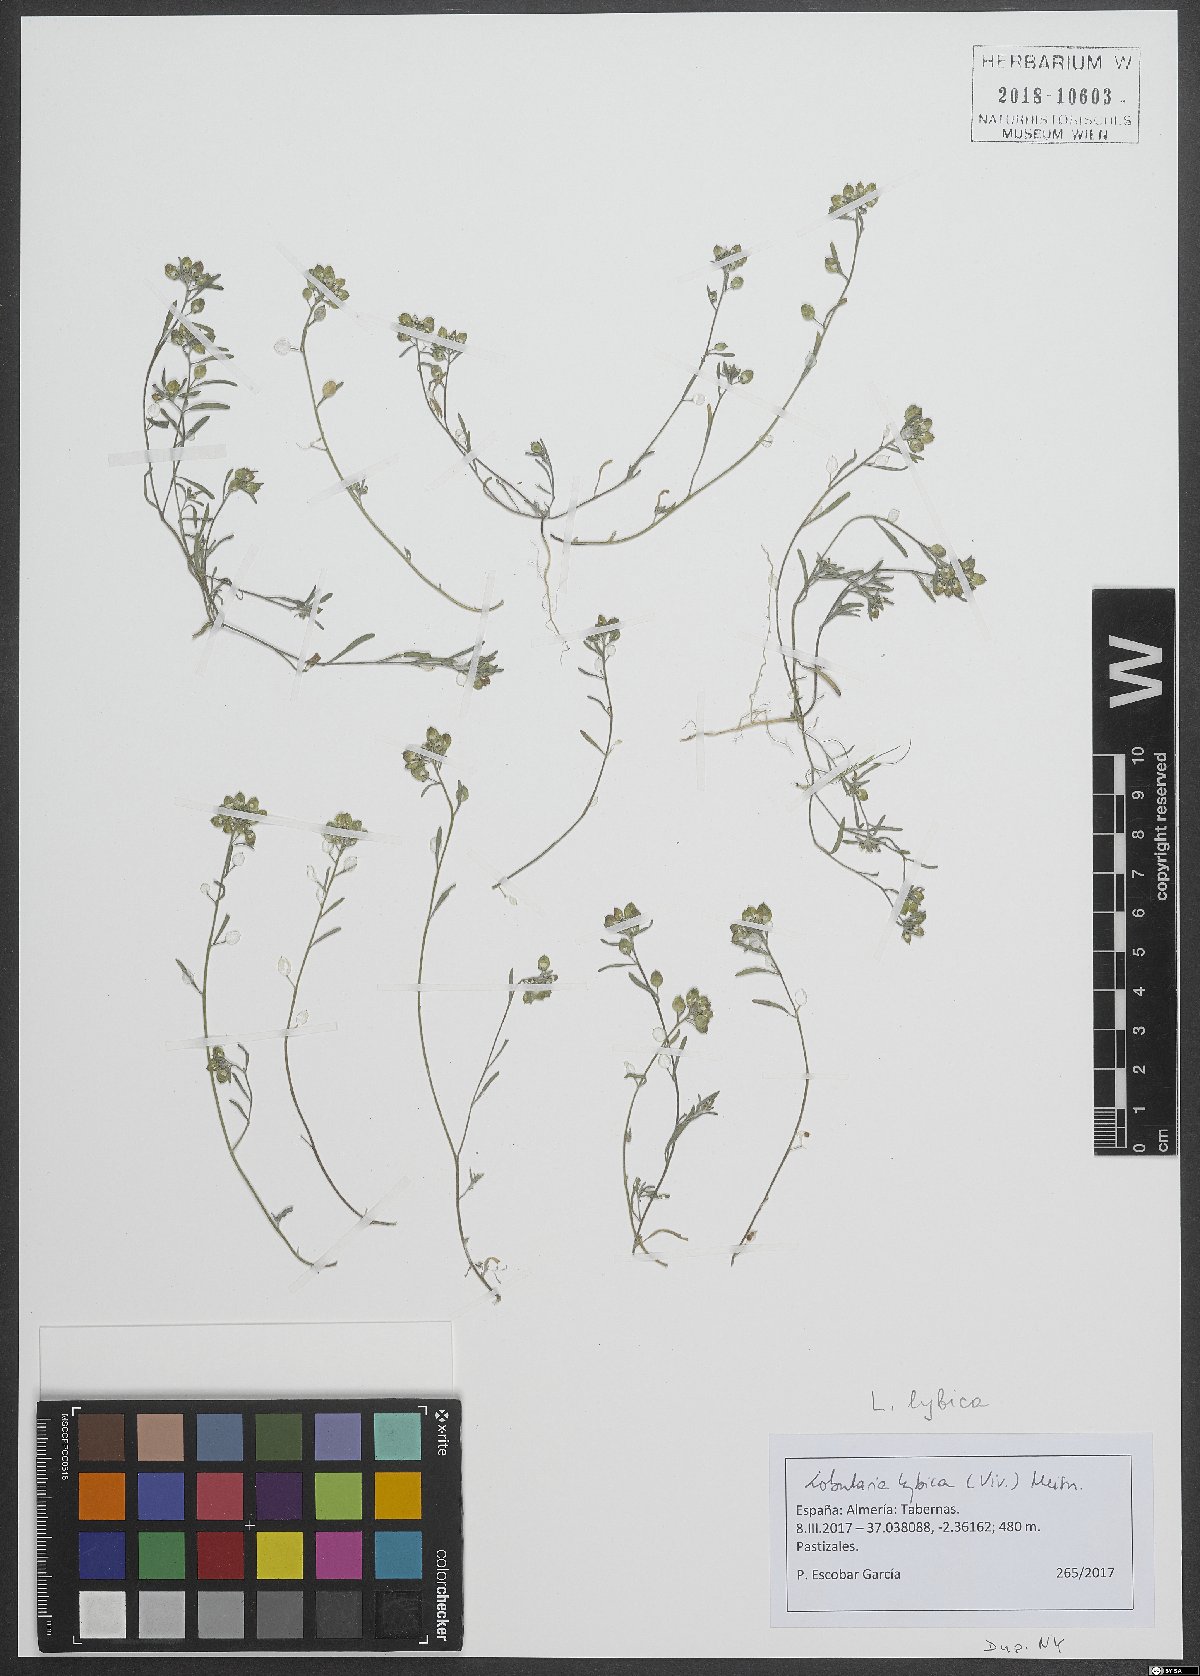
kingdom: Plantae
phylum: Tracheophyta
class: Magnoliopsida
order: Brassicales
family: Brassicaceae
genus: Lobularia
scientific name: Lobularia libyca
